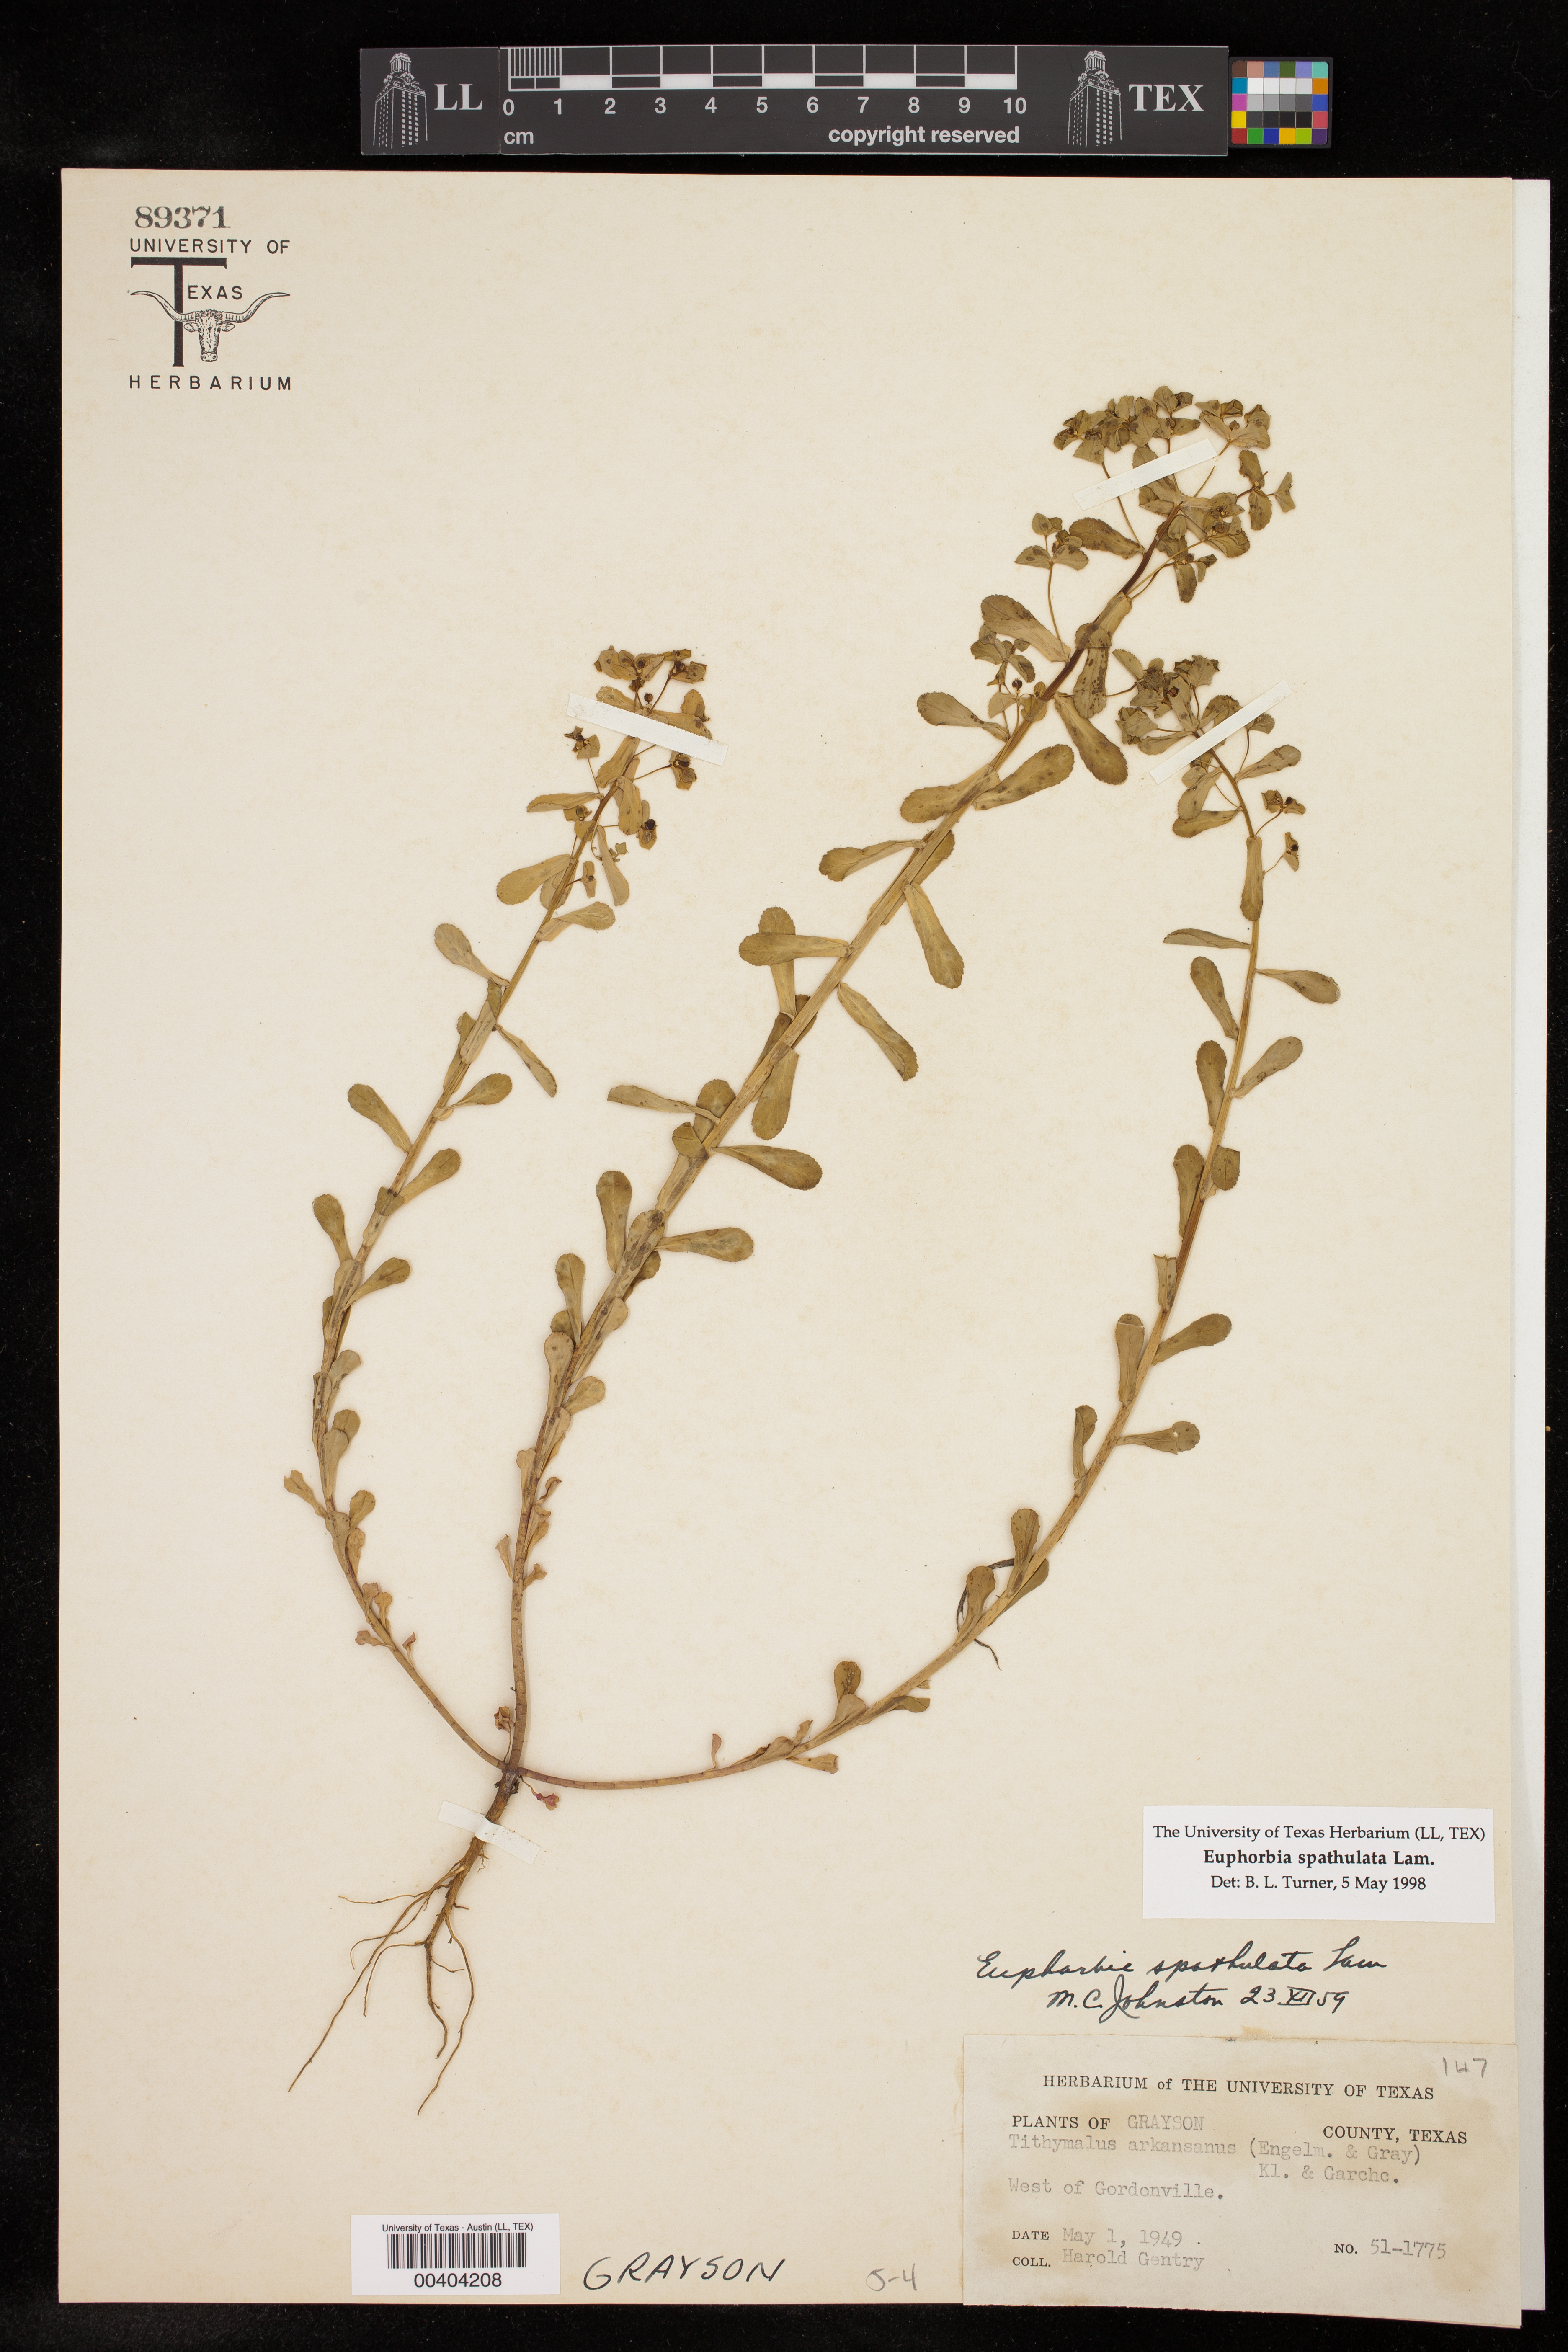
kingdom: Plantae
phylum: Tracheophyta
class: Magnoliopsida
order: Malpighiales
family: Euphorbiaceae
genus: Euphorbia
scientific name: Euphorbia spathulata
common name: Blunt spurge
